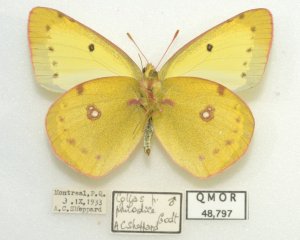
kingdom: Animalia
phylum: Arthropoda
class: Insecta
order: Lepidoptera
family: Pieridae
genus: Colias
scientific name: Colias philodice
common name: Clouded Sulphur
